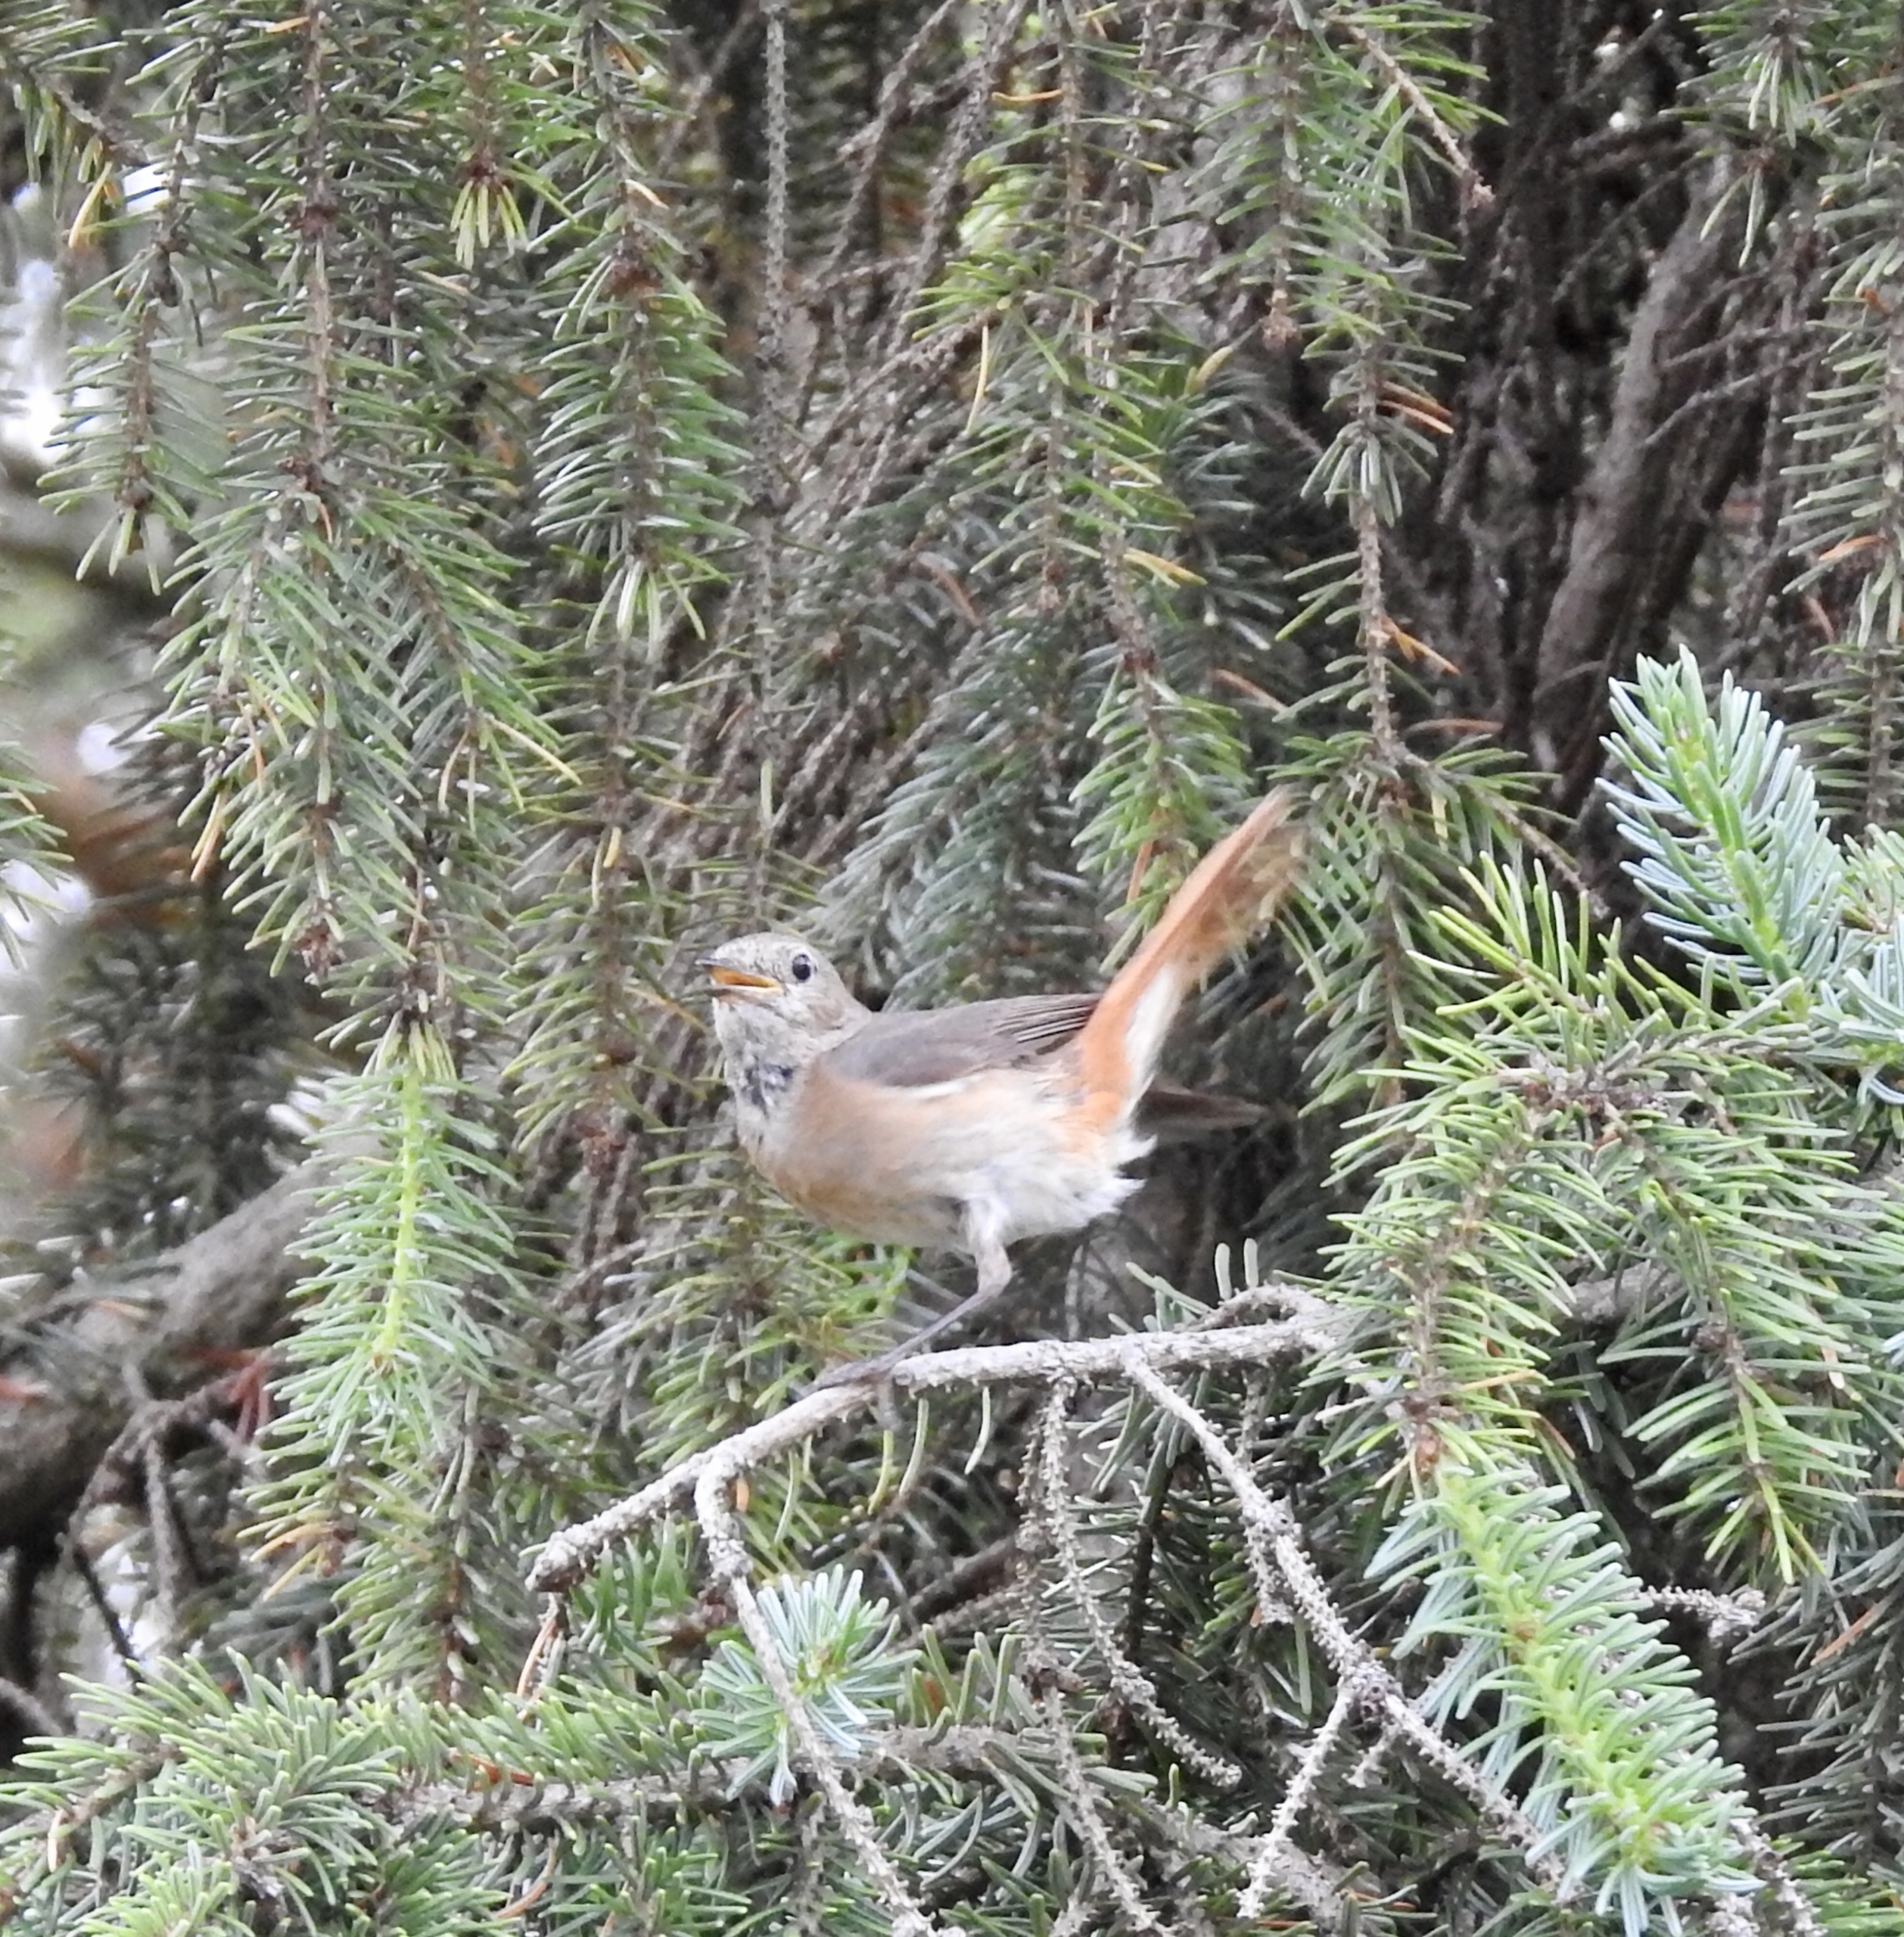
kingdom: Animalia
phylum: Chordata
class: Aves
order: Passeriformes
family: Muscicapidae
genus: Phoenicurus
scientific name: Phoenicurus phoenicurus
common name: Rødstjert
